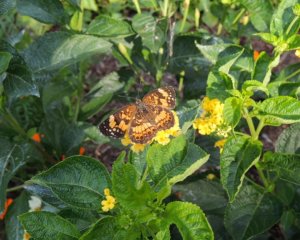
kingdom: Animalia
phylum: Arthropoda
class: Insecta
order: Lepidoptera
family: Nymphalidae
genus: Chlosyne
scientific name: Chlosyne nycteis
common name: Silvery Checkerspot
